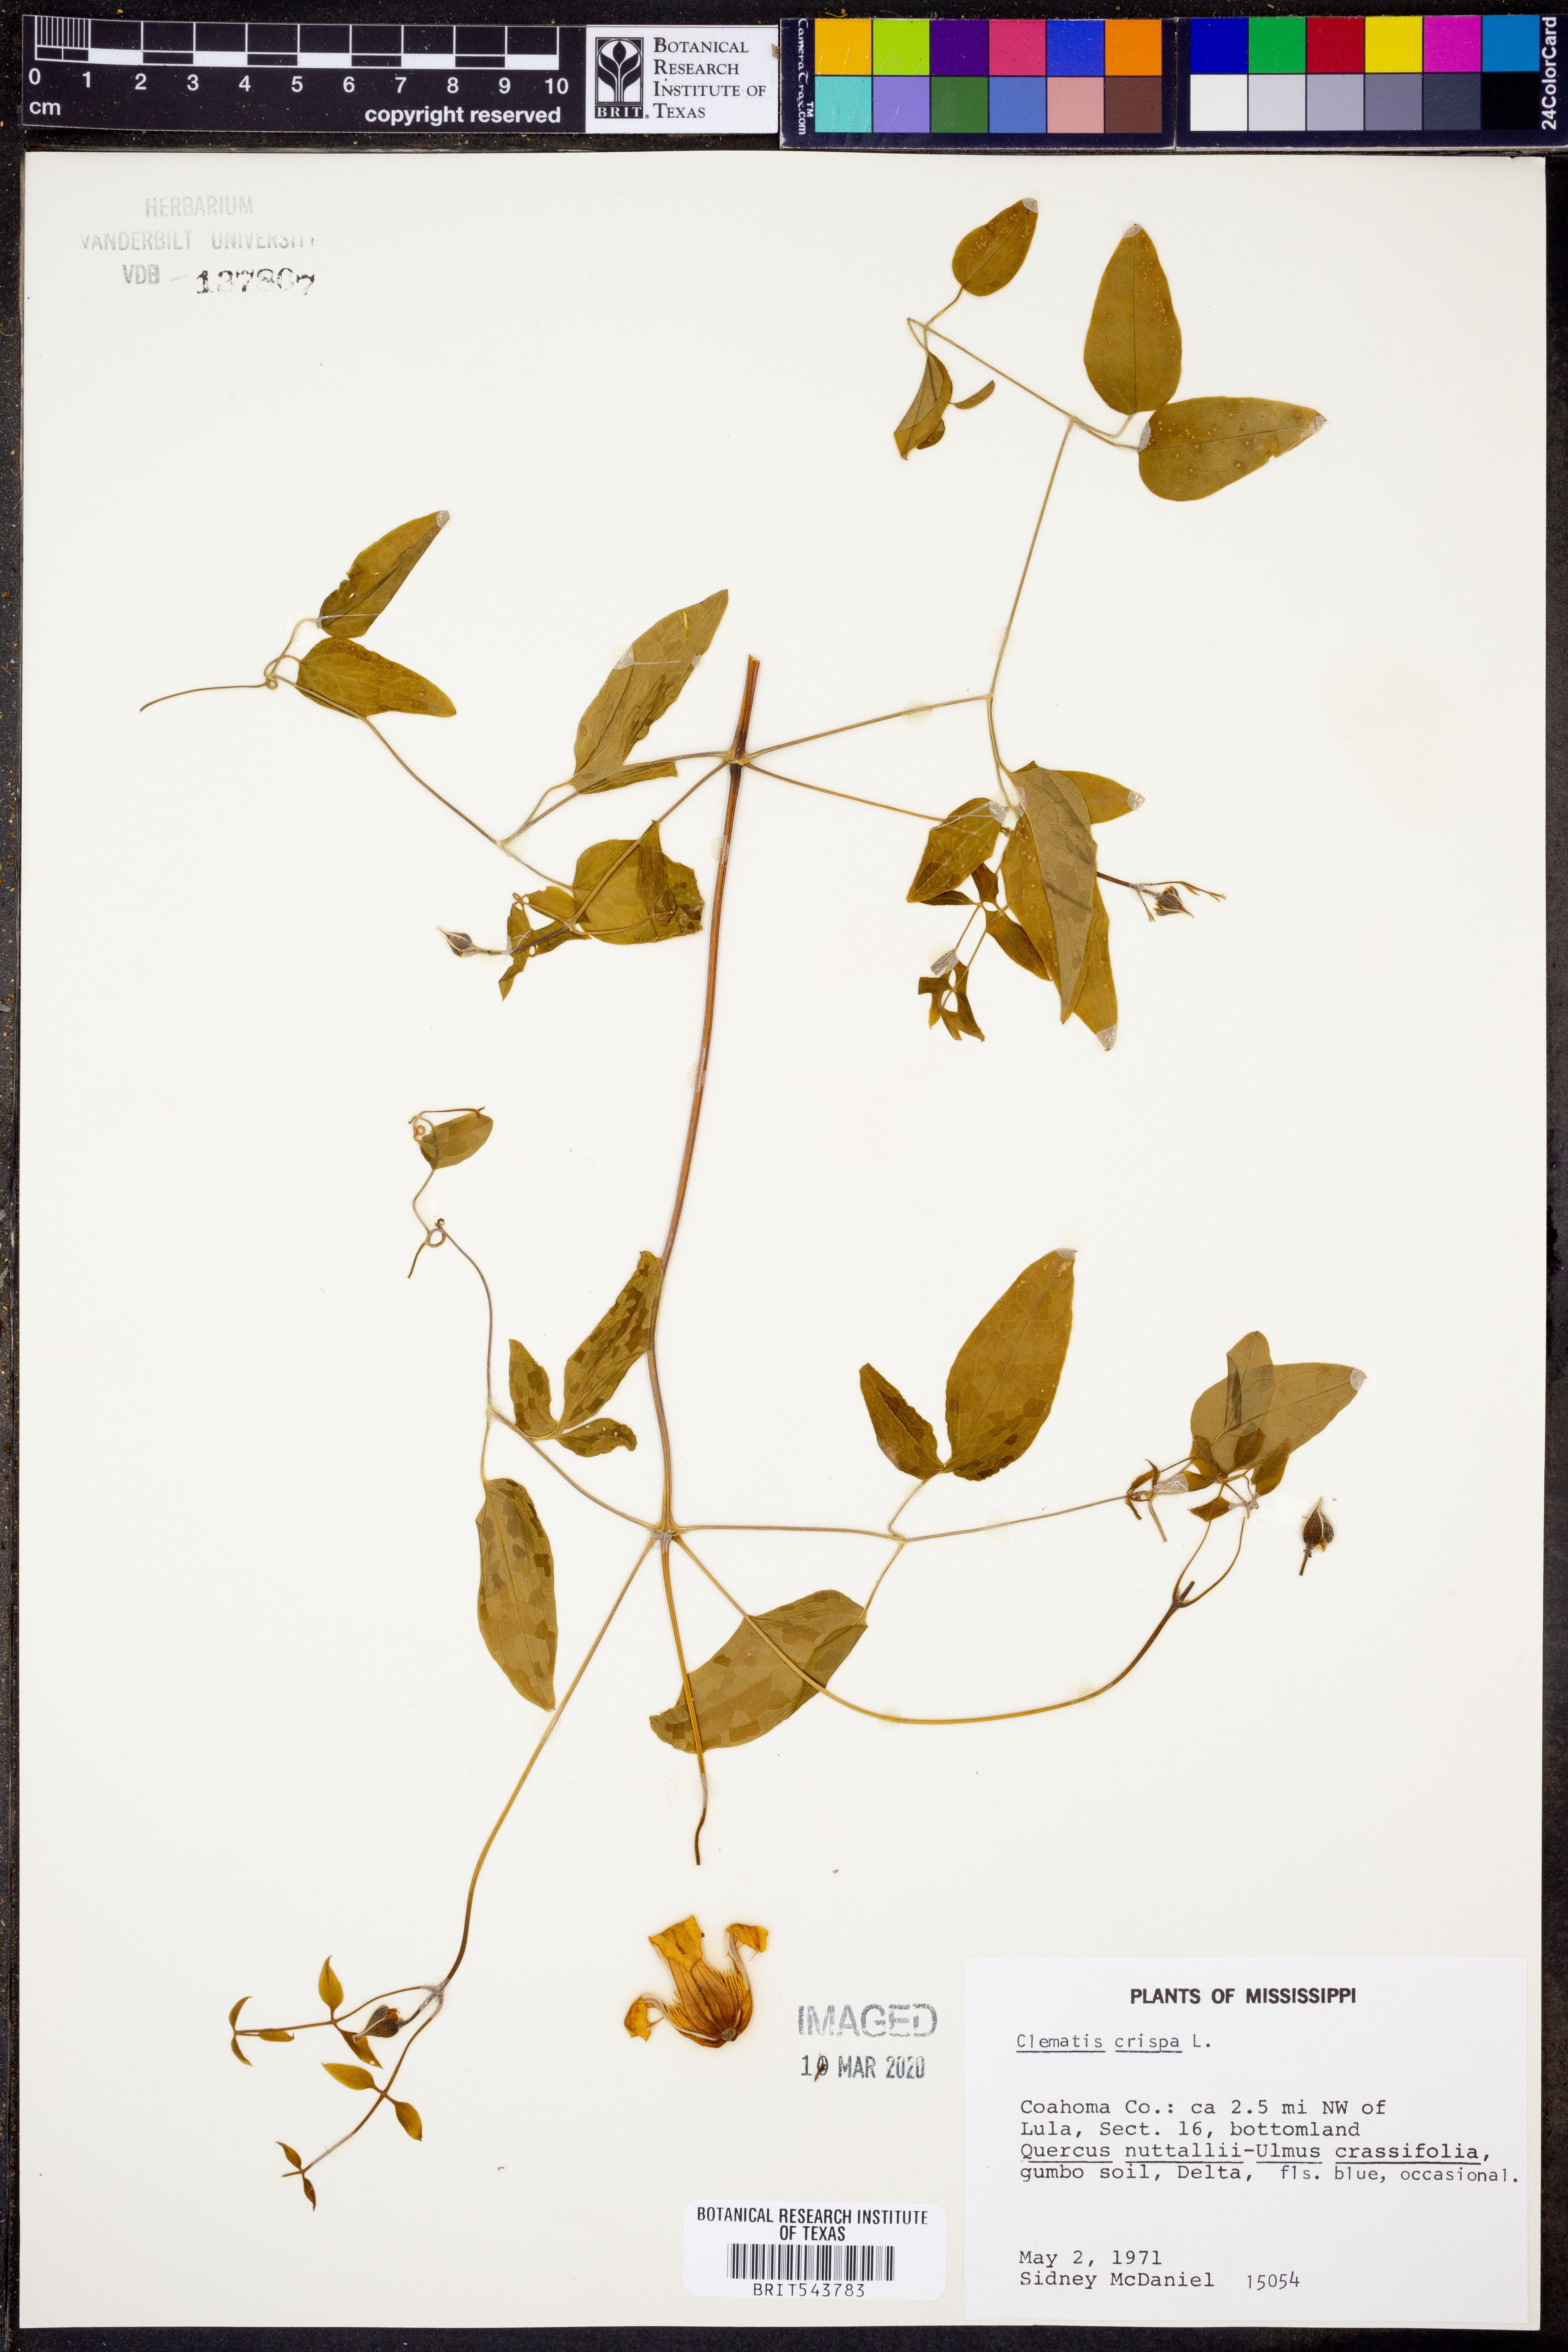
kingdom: Plantae
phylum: Tracheophyta
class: Magnoliopsida
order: Ranunculales
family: Ranunculaceae
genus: Clematis
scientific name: Clematis crispa
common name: Curly clematis
